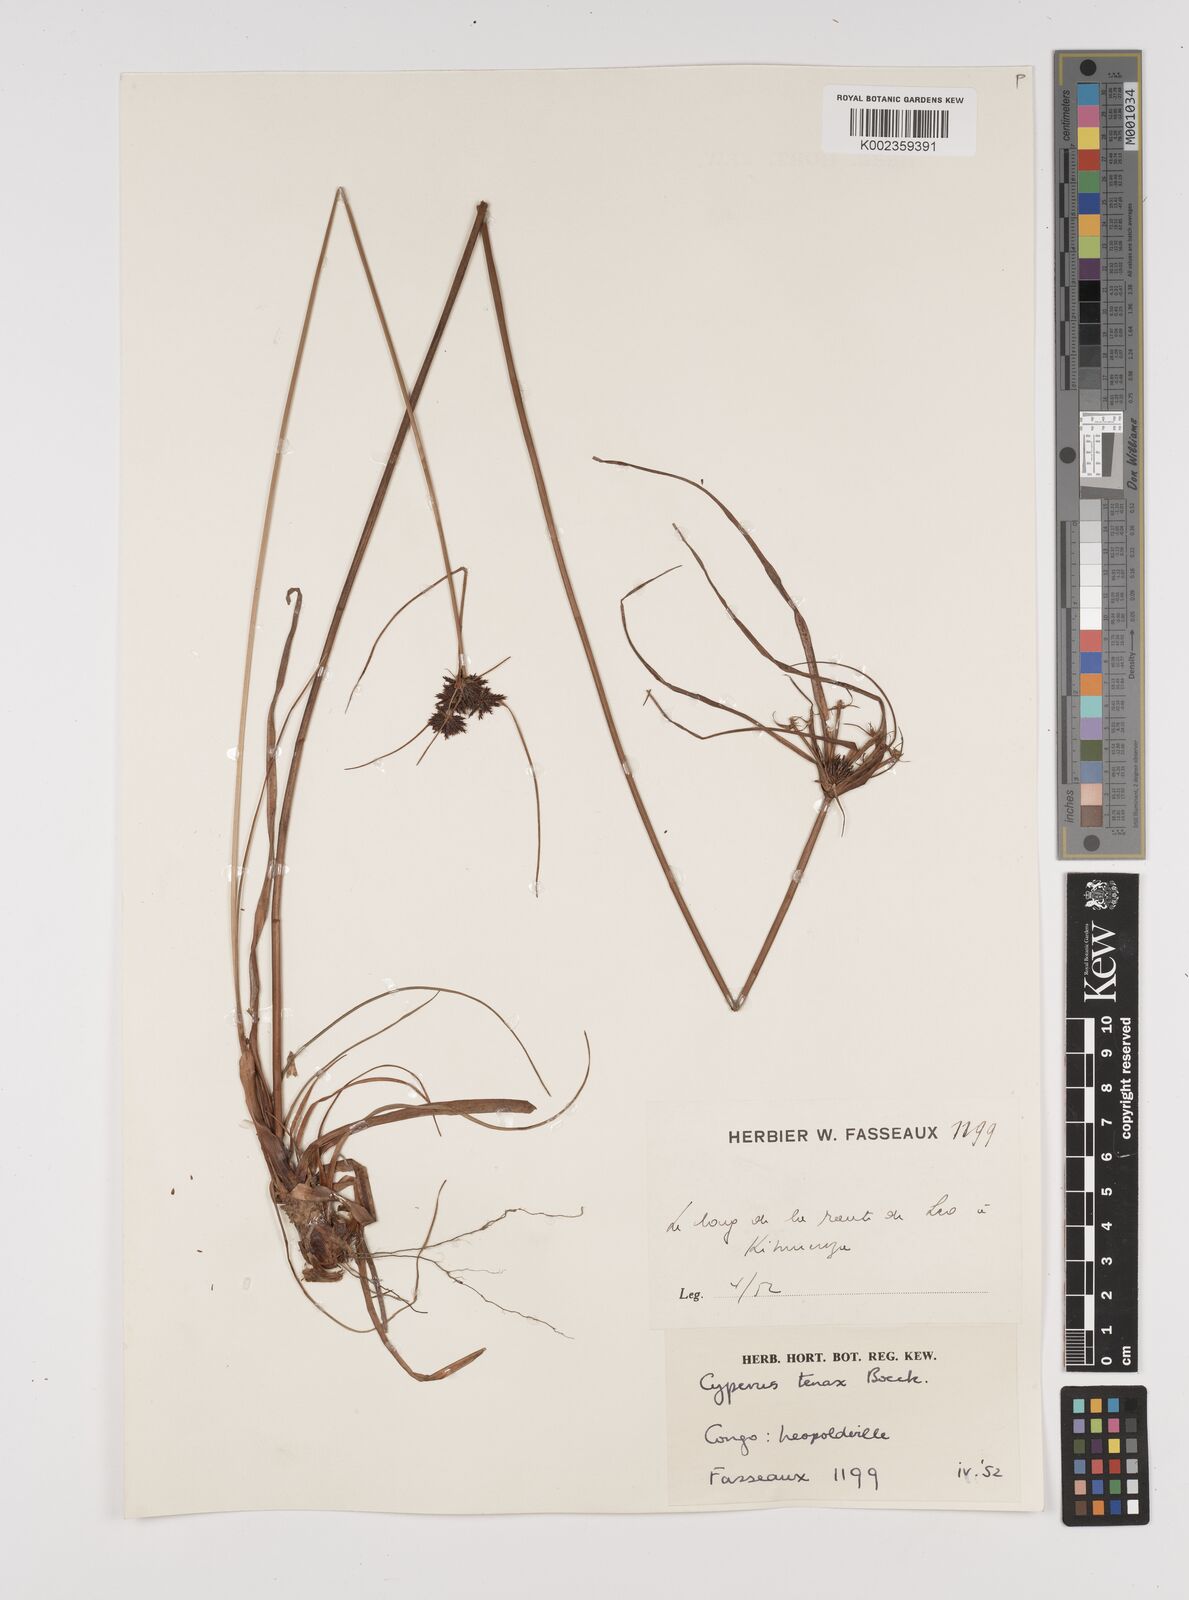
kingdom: Plantae
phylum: Tracheophyta
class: Liliopsida
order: Poales
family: Cyperaceae
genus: Cyperus
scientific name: Cyperus tenax
